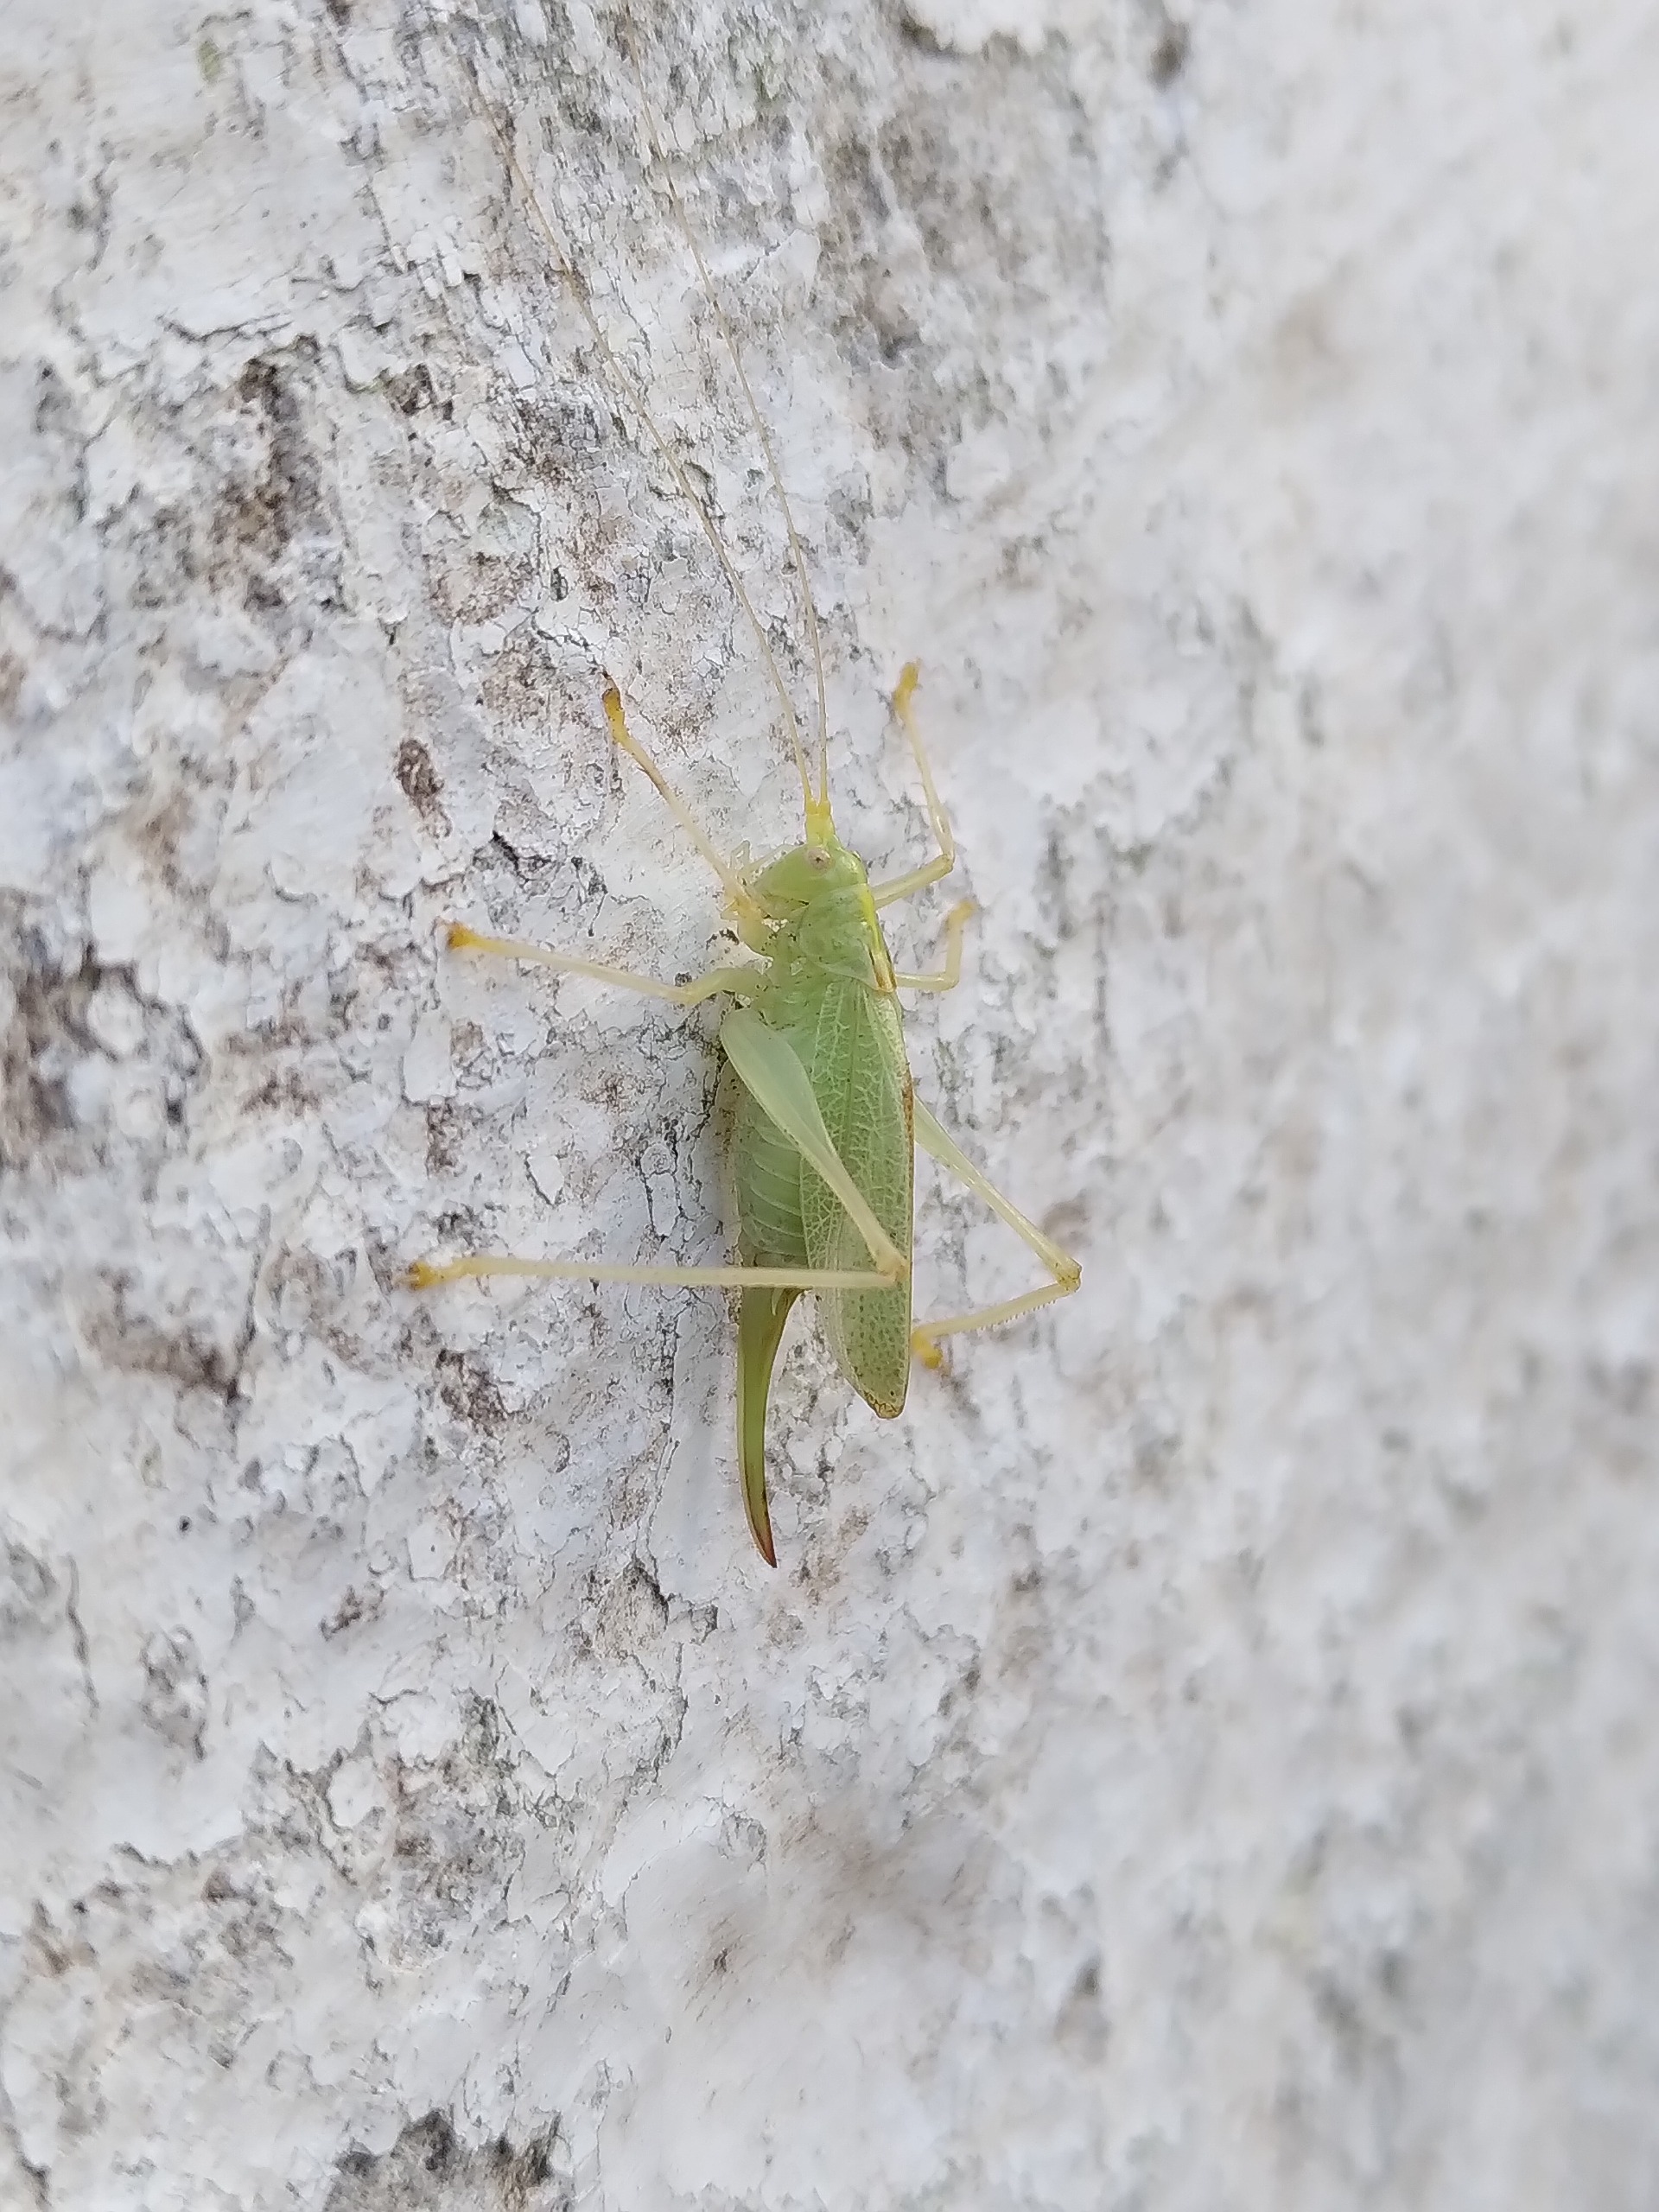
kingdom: Animalia
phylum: Arthropoda
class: Insecta
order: Orthoptera
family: Tettigoniidae
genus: Meconema
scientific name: Meconema thalassinum
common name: Egegræshoppe
